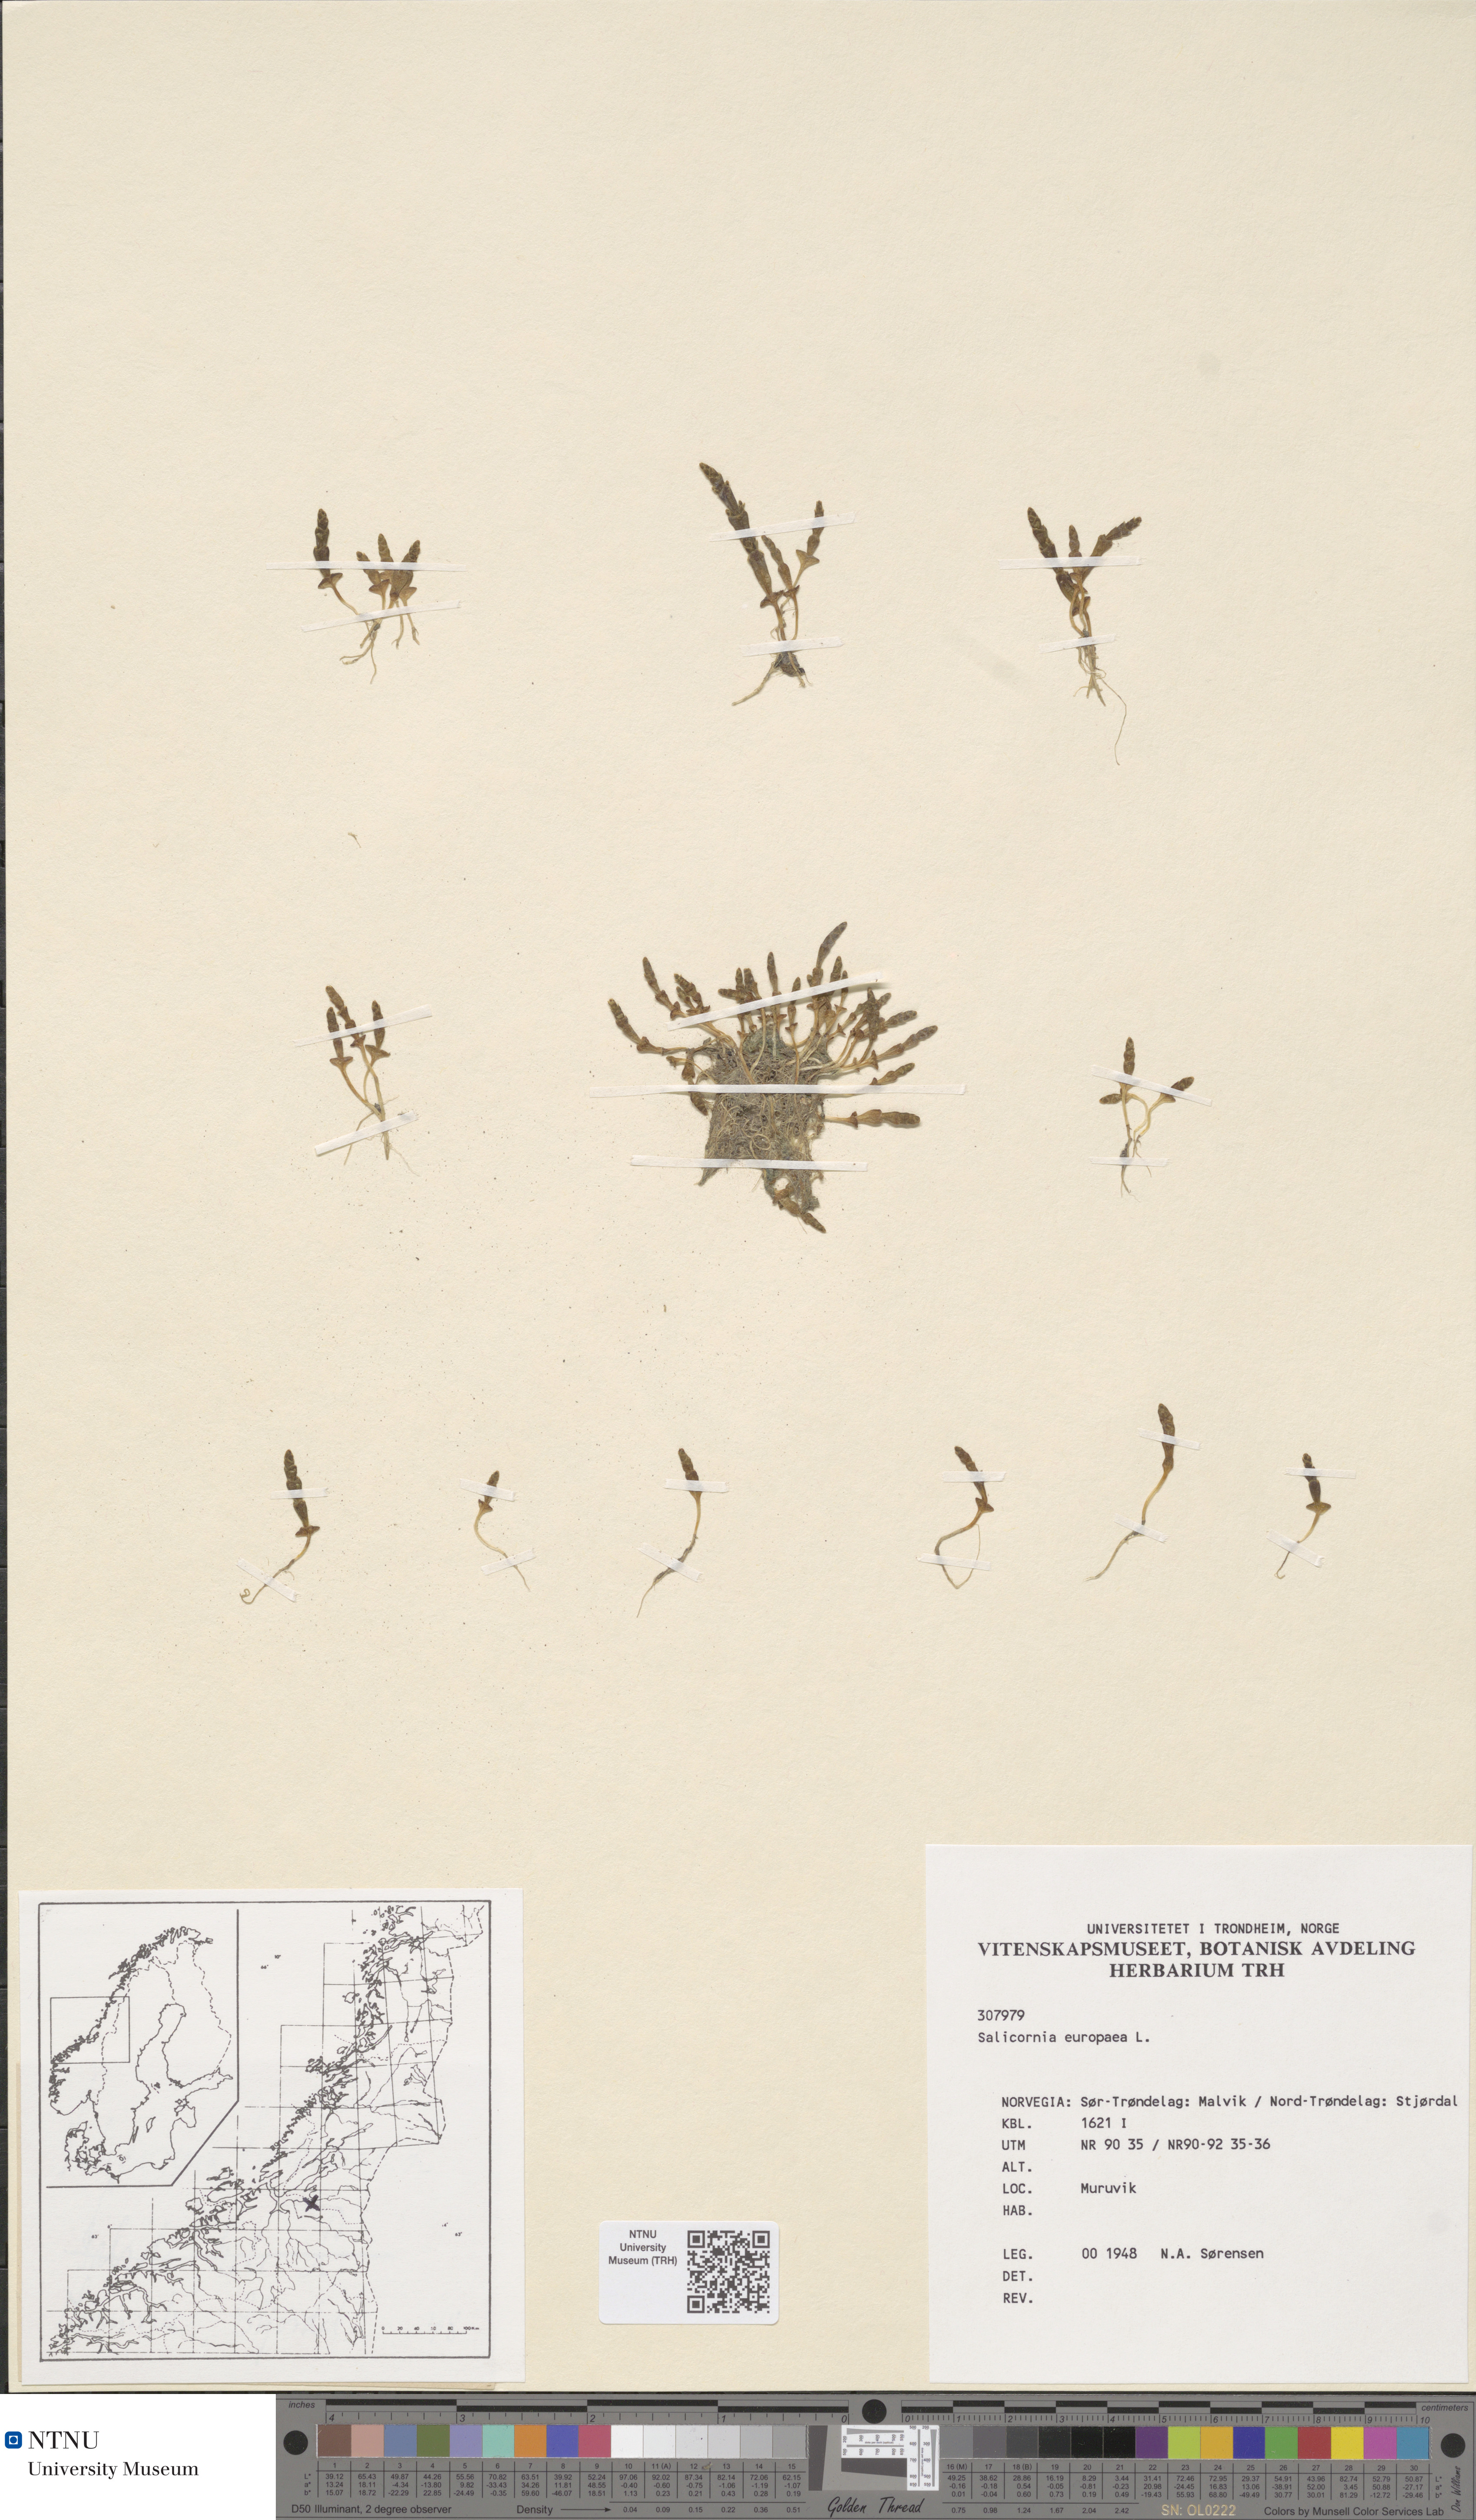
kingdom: Plantae
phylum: Tracheophyta
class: Magnoliopsida
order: Caryophyllales
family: Amaranthaceae
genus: Salicornia
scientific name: Salicornia europaea
